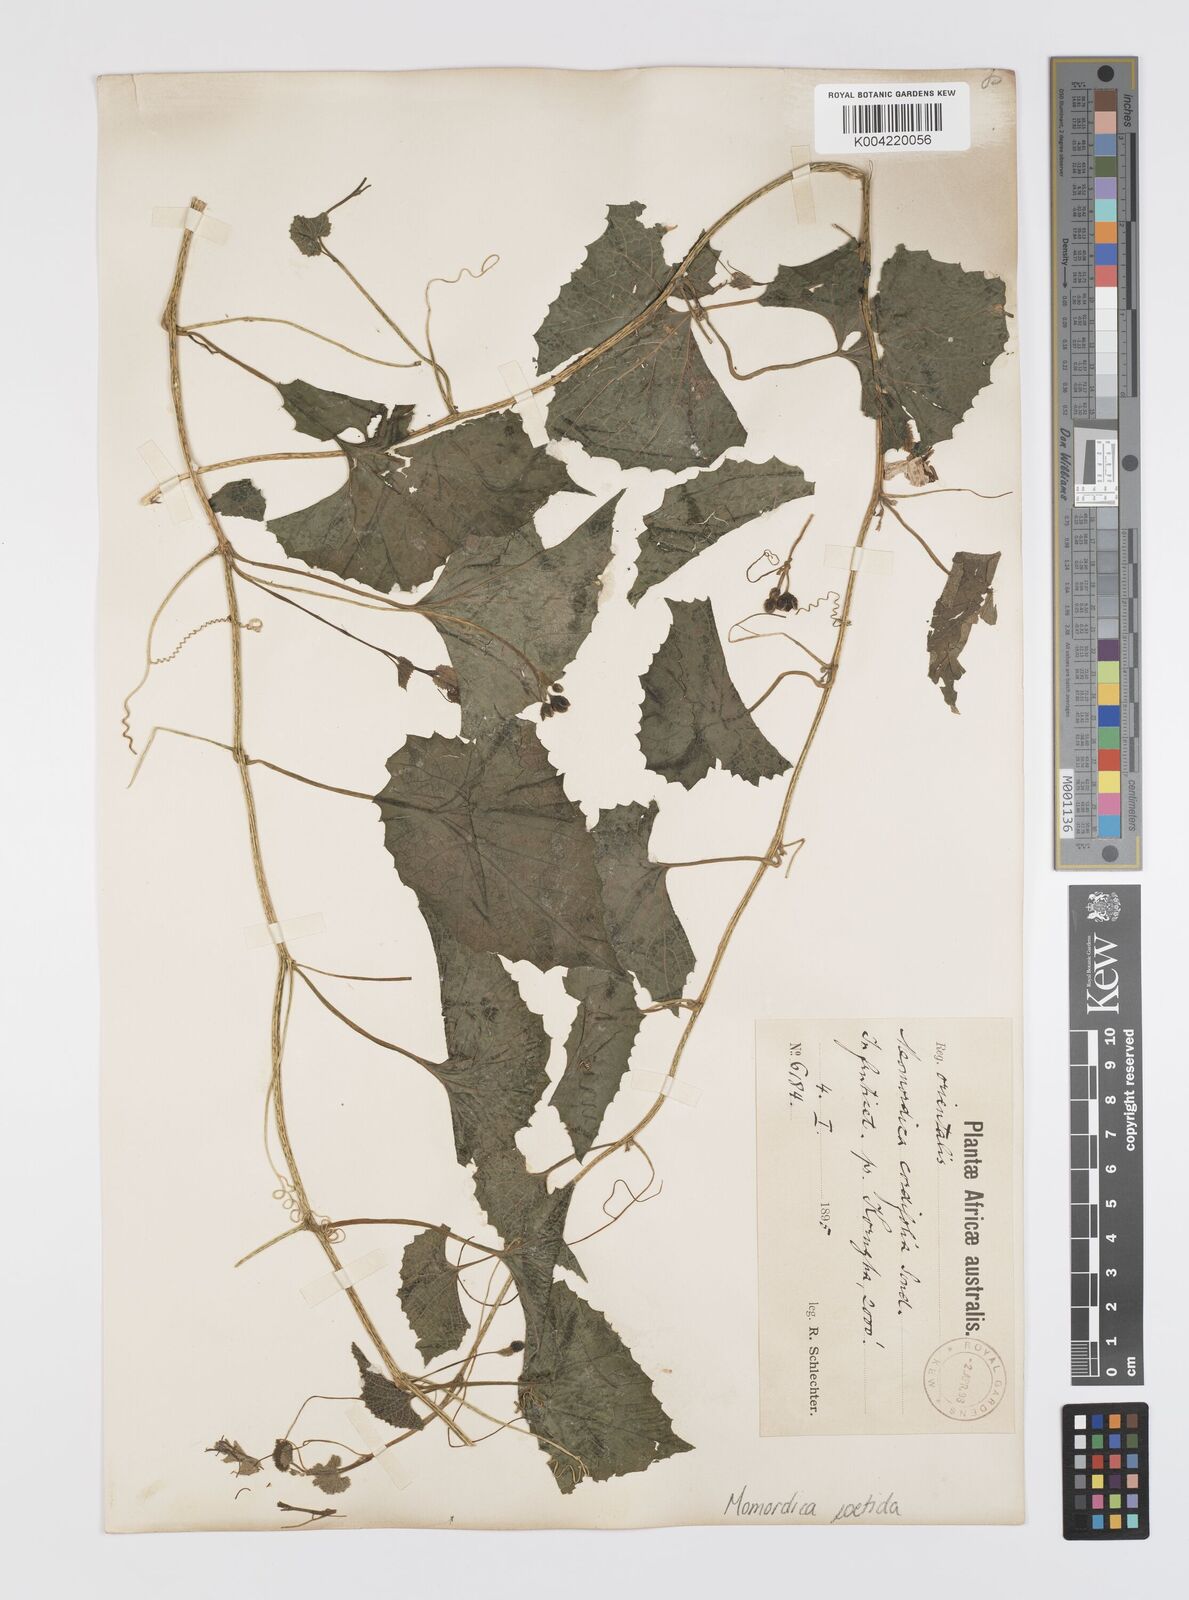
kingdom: Plantae
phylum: Tracheophyta
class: Magnoliopsida
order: Cucurbitales
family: Cucurbitaceae
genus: Momordica
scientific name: Momordica foetida
